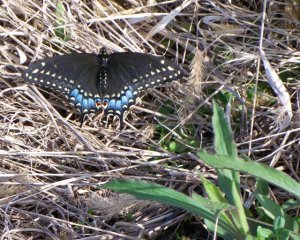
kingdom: Animalia
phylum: Arthropoda
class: Insecta
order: Lepidoptera
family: Papilionidae
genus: Papilio
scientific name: Papilio polyxenes
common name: Black Swallowtail
